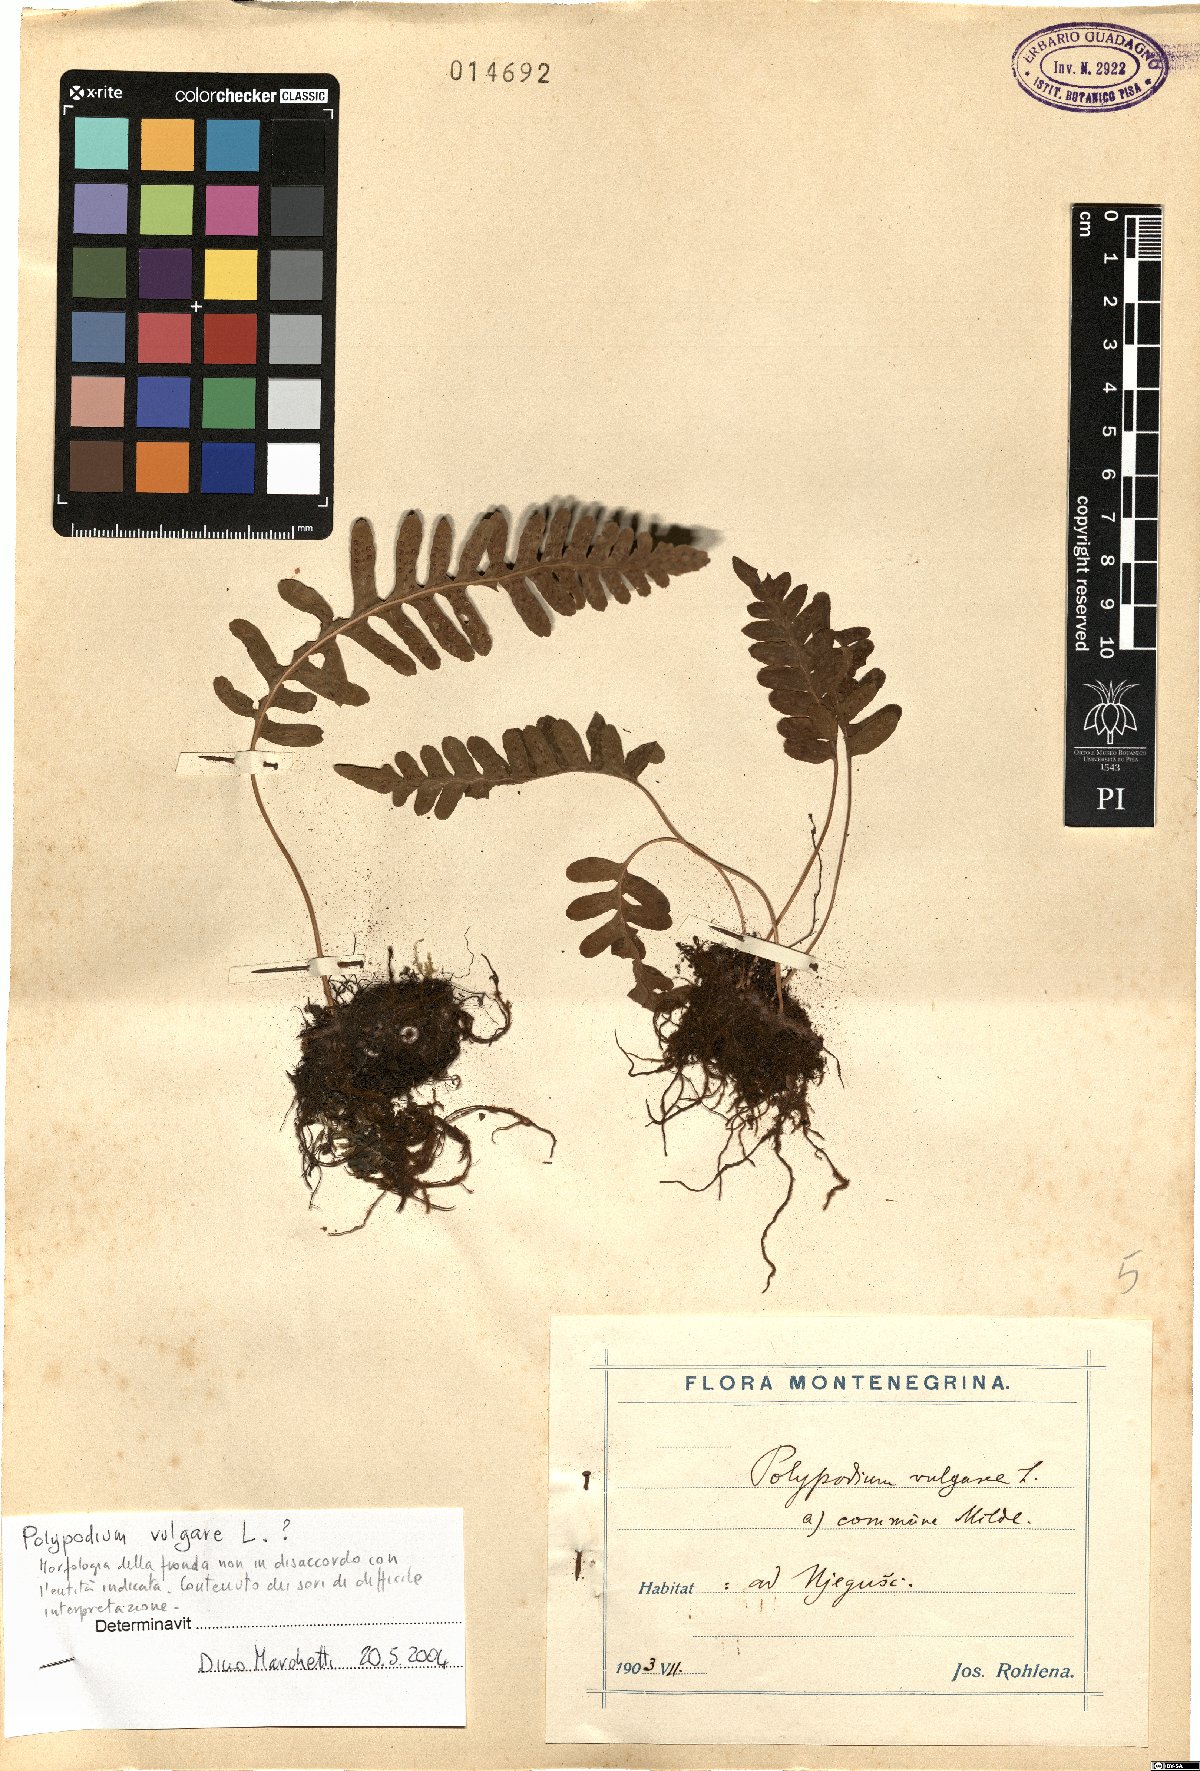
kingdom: Plantae
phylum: Tracheophyta
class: Polypodiopsida
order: Polypodiales
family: Polypodiaceae
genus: Polypodium
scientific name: Polypodium vulgare
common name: Common polypody
